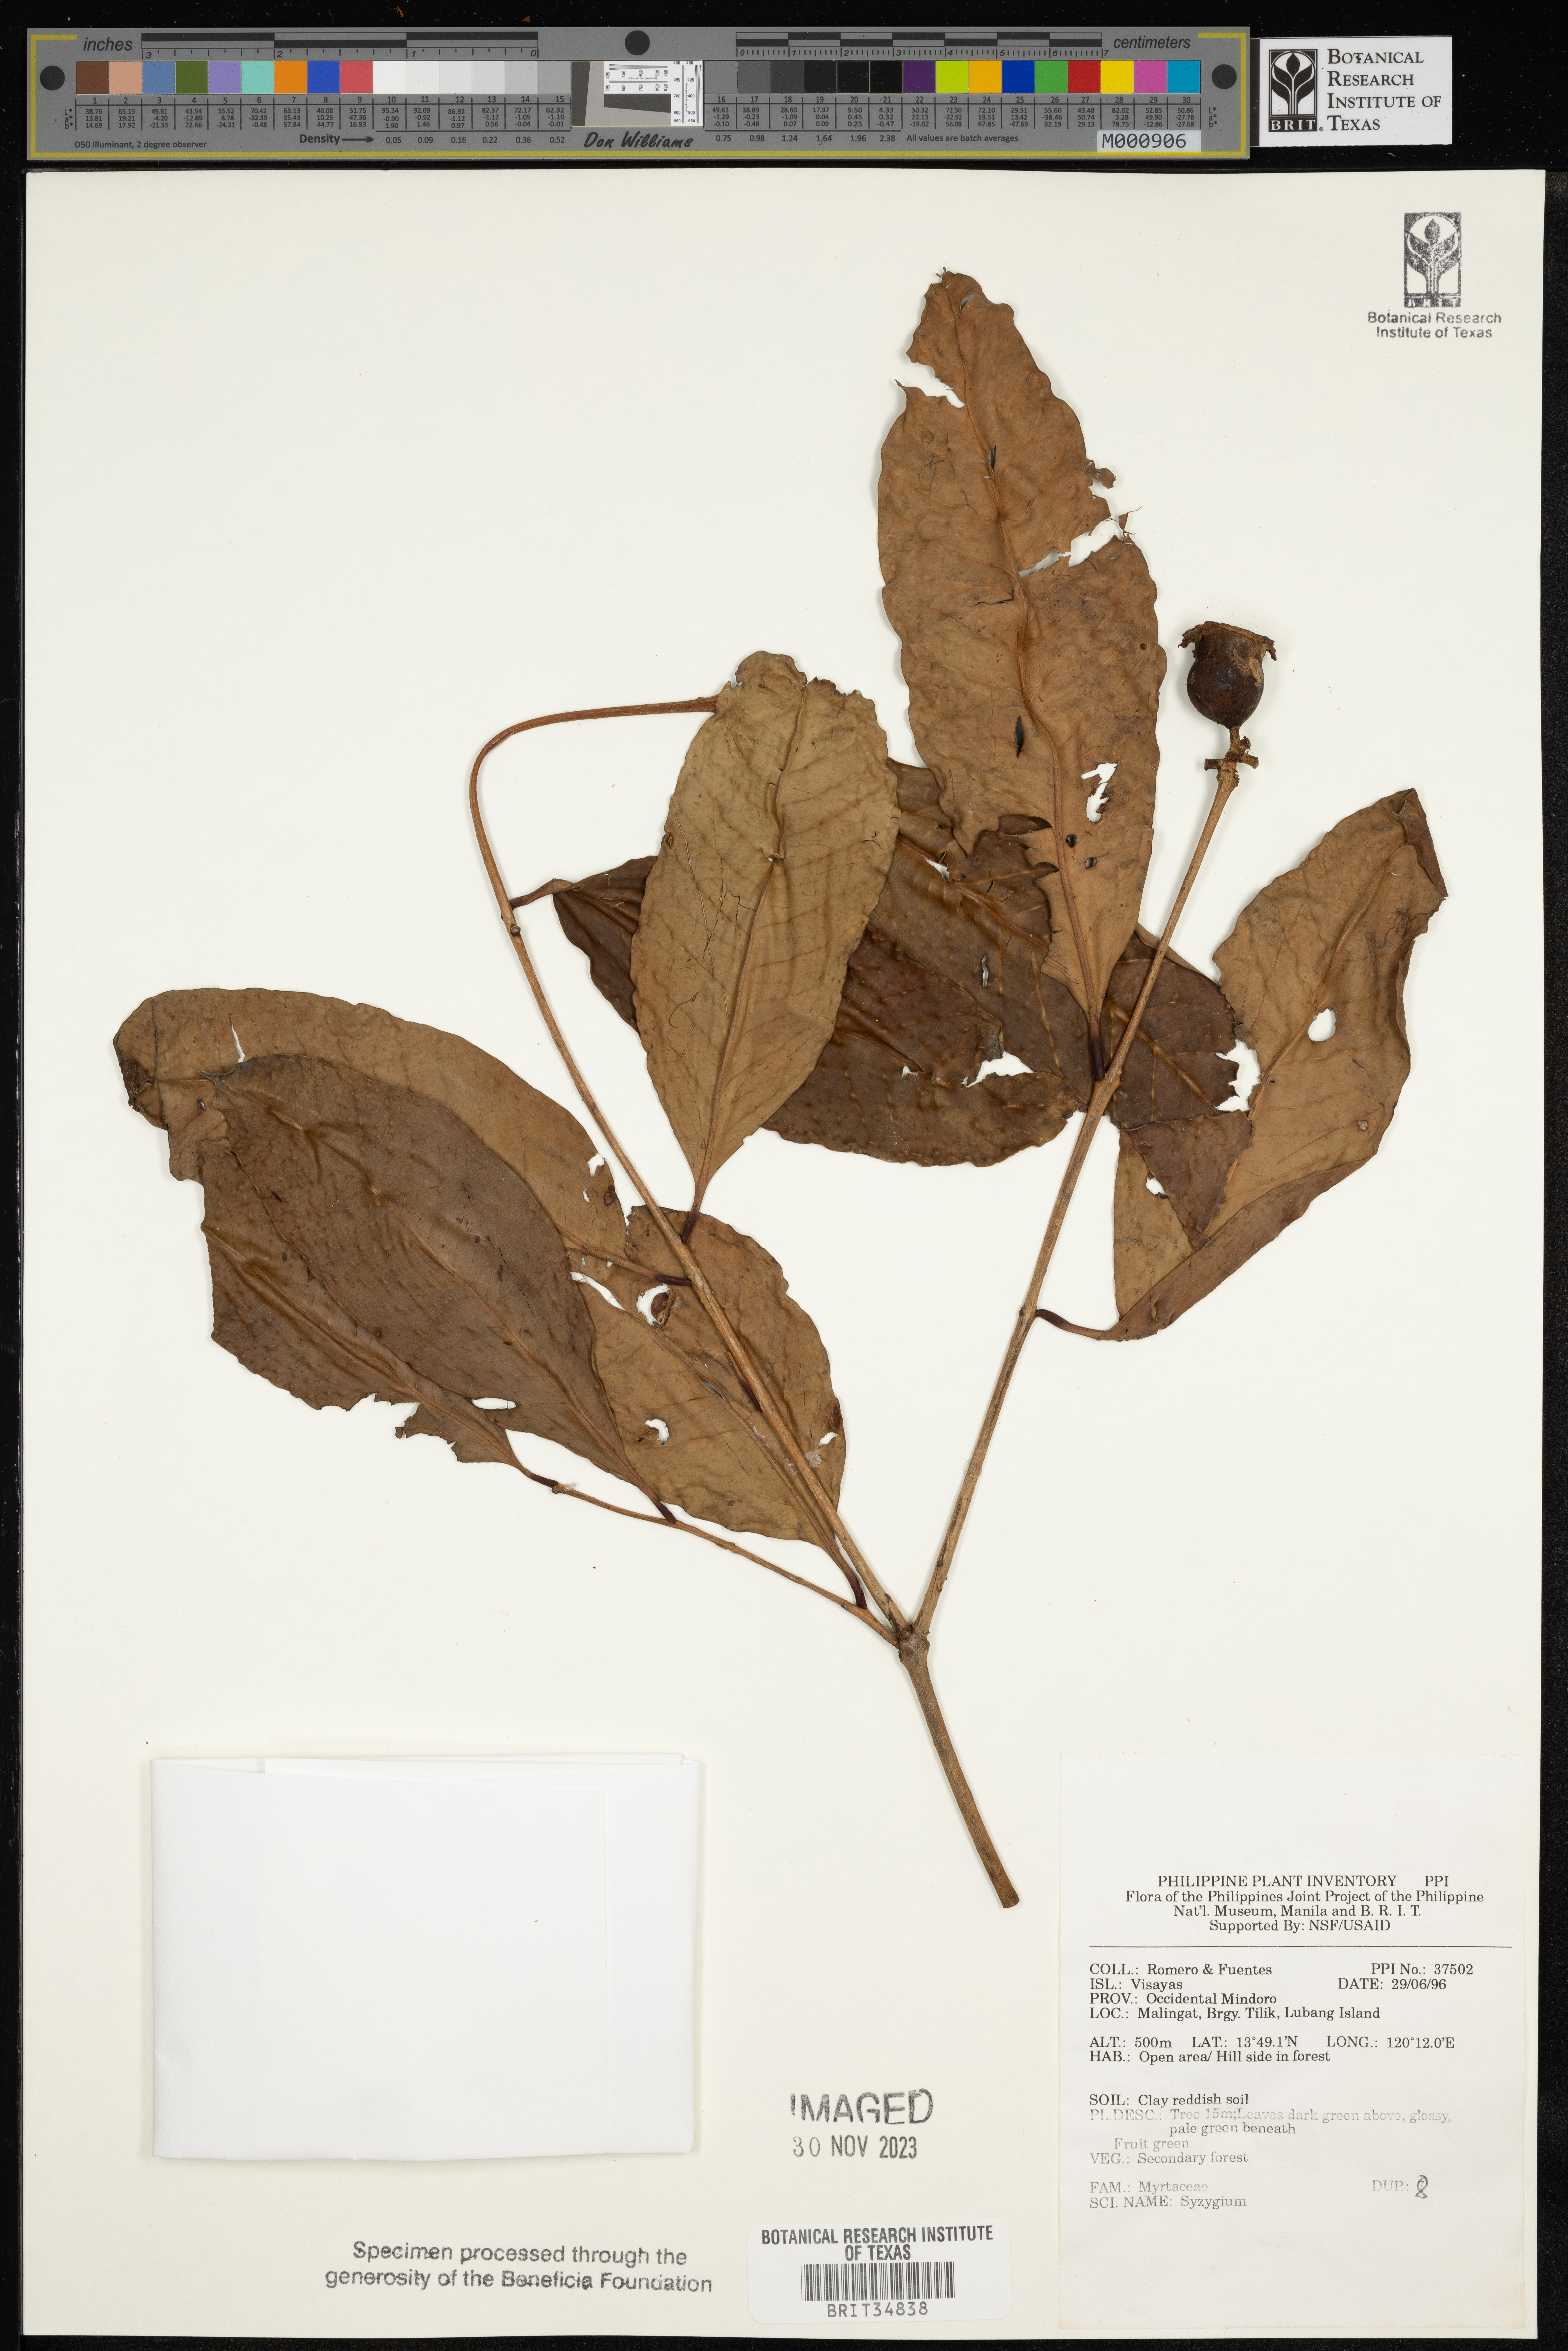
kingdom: Plantae
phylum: Tracheophyta
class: Magnoliopsida
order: Myrtales
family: Myrtaceae
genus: Syzygium
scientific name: Syzygium
